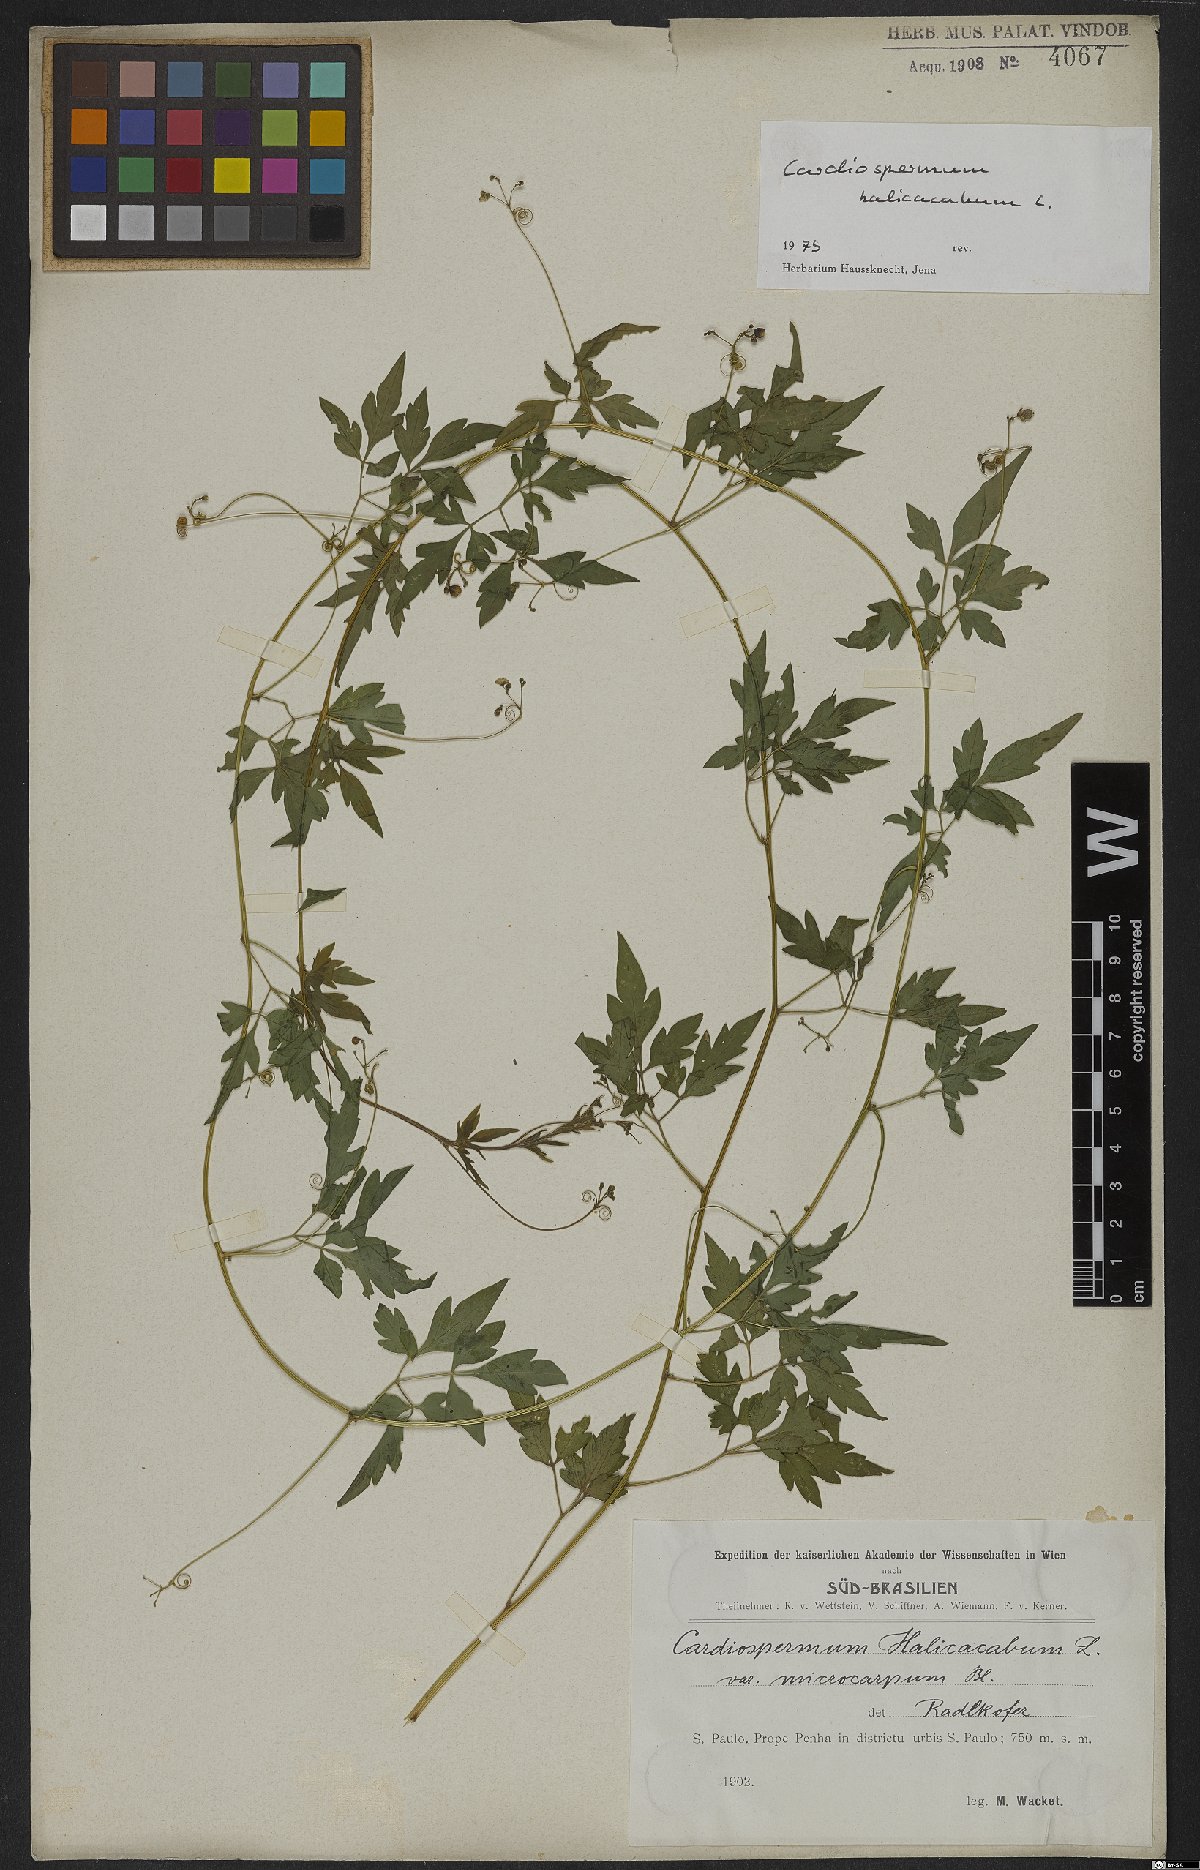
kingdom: Plantae
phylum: Tracheophyta
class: Magnoliopsida
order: Sapindales
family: Sapindaceae
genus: Cardiospermum
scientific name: Cardiospermum halicacabum
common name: Balloon vine
